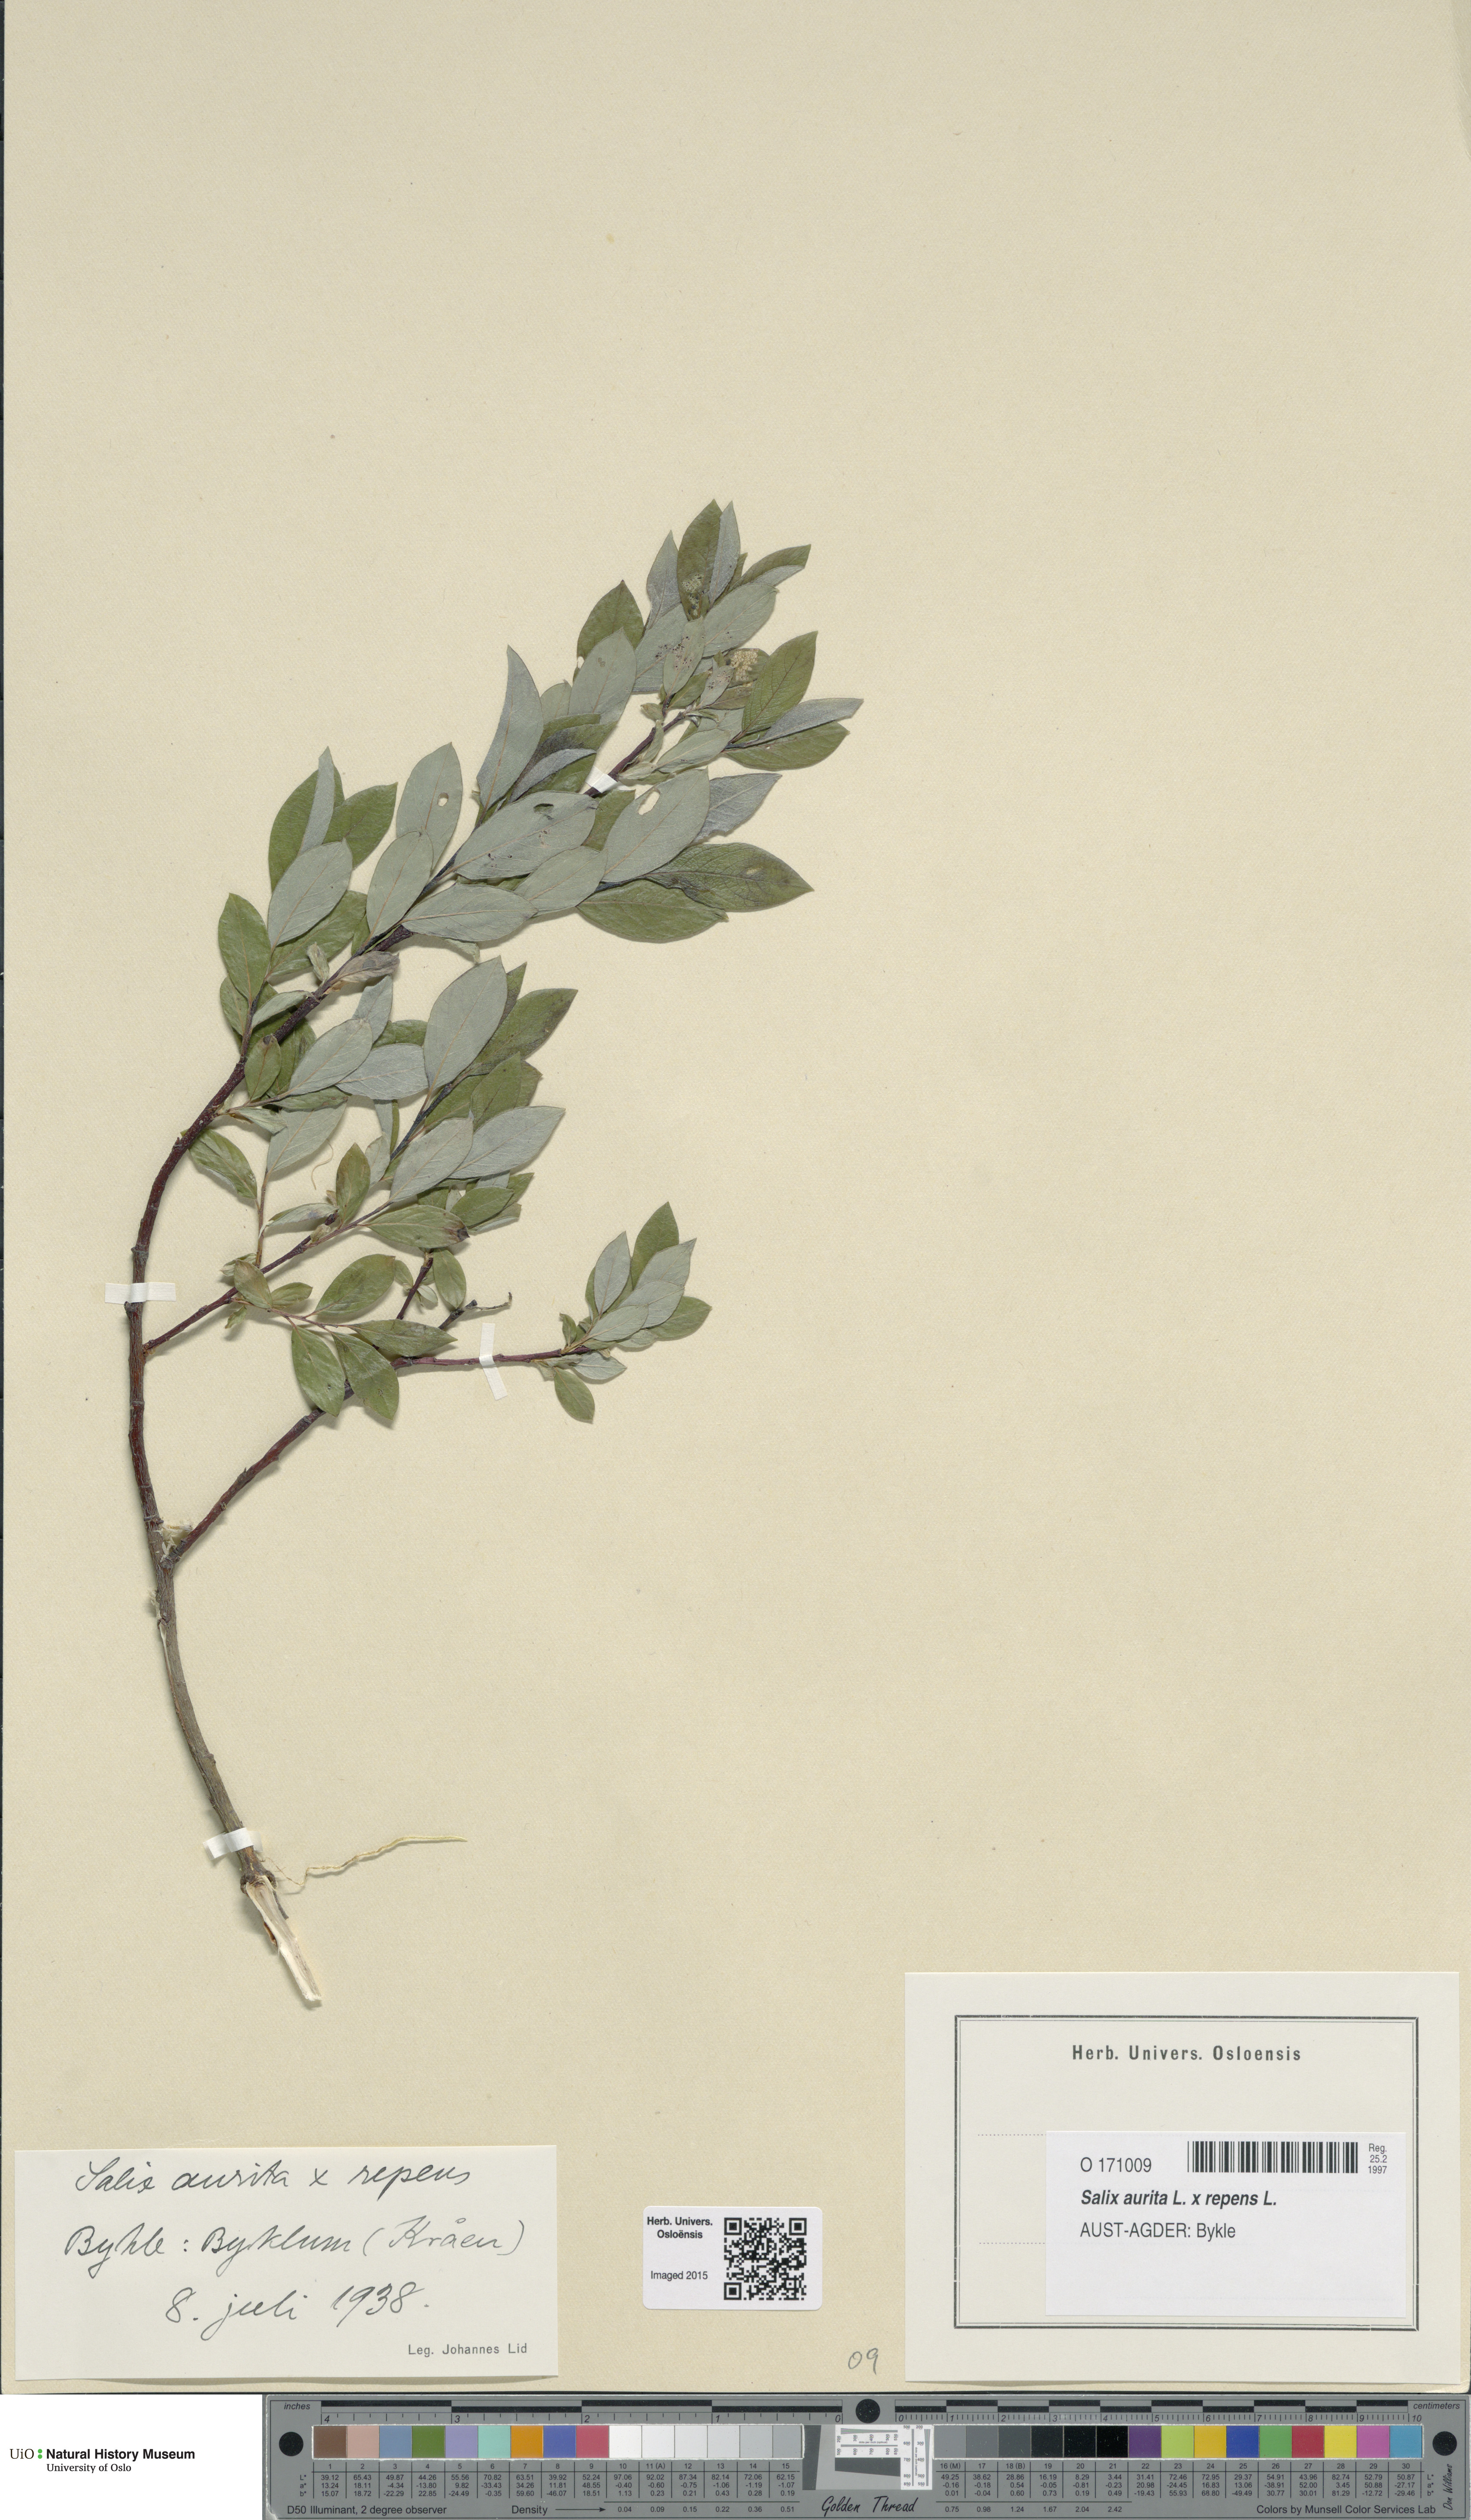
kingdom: Plantae
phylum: Tracheophyta
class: Magnoliopsida
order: Malpighiales
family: Salicaceae
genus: Salix
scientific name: Salix
